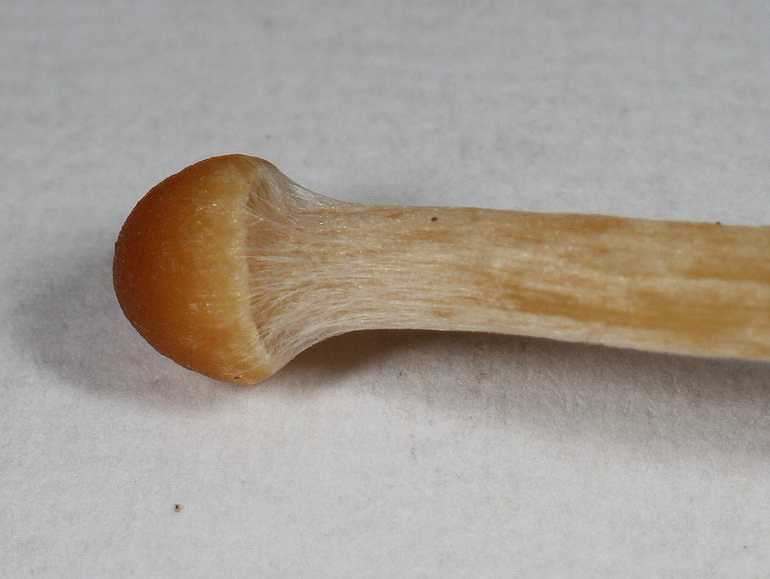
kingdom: Fungi
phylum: Basidiomycota
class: Agaricomycetes
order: Agaricales
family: Hymenogastraceae
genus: Galerina
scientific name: Galerina clavata
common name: kær-hjelmhat
